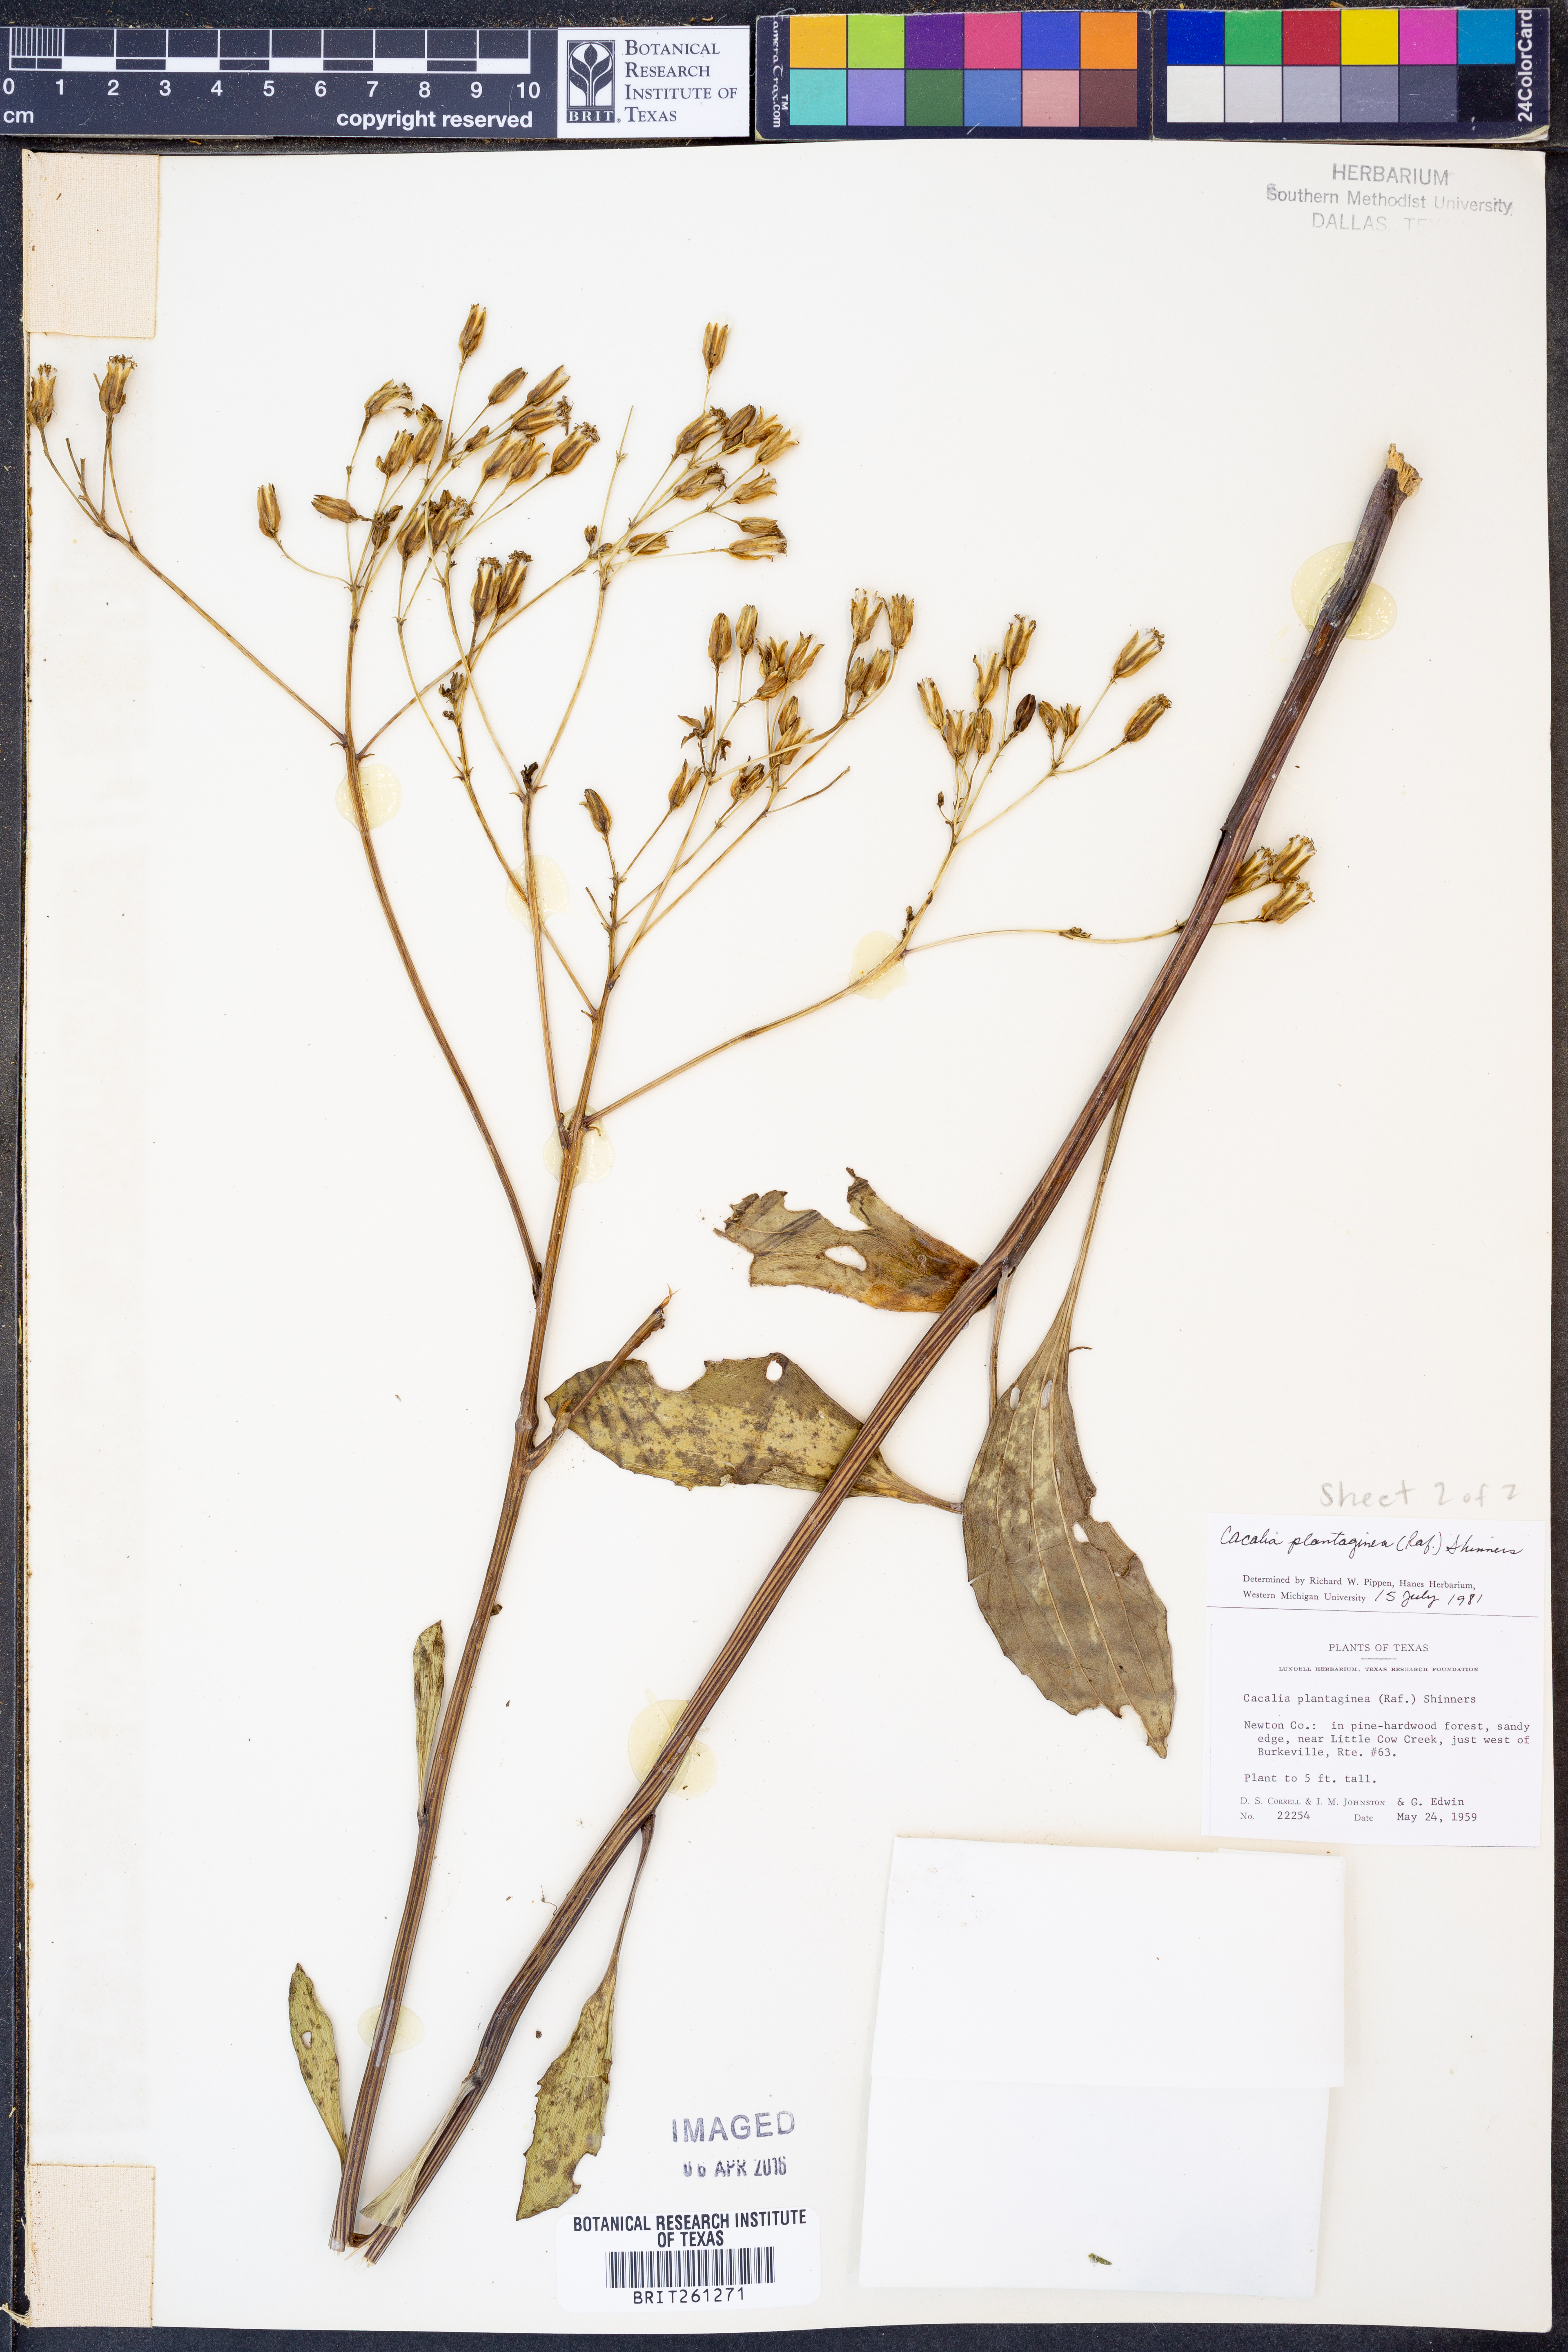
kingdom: Plantae
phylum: Tracheophyta
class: Magnoliopsida
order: Asterales
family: Asteraceae
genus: Arnoglossum
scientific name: Arnoglossum plantagineum
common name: Groove-stemmed indian-plantain
